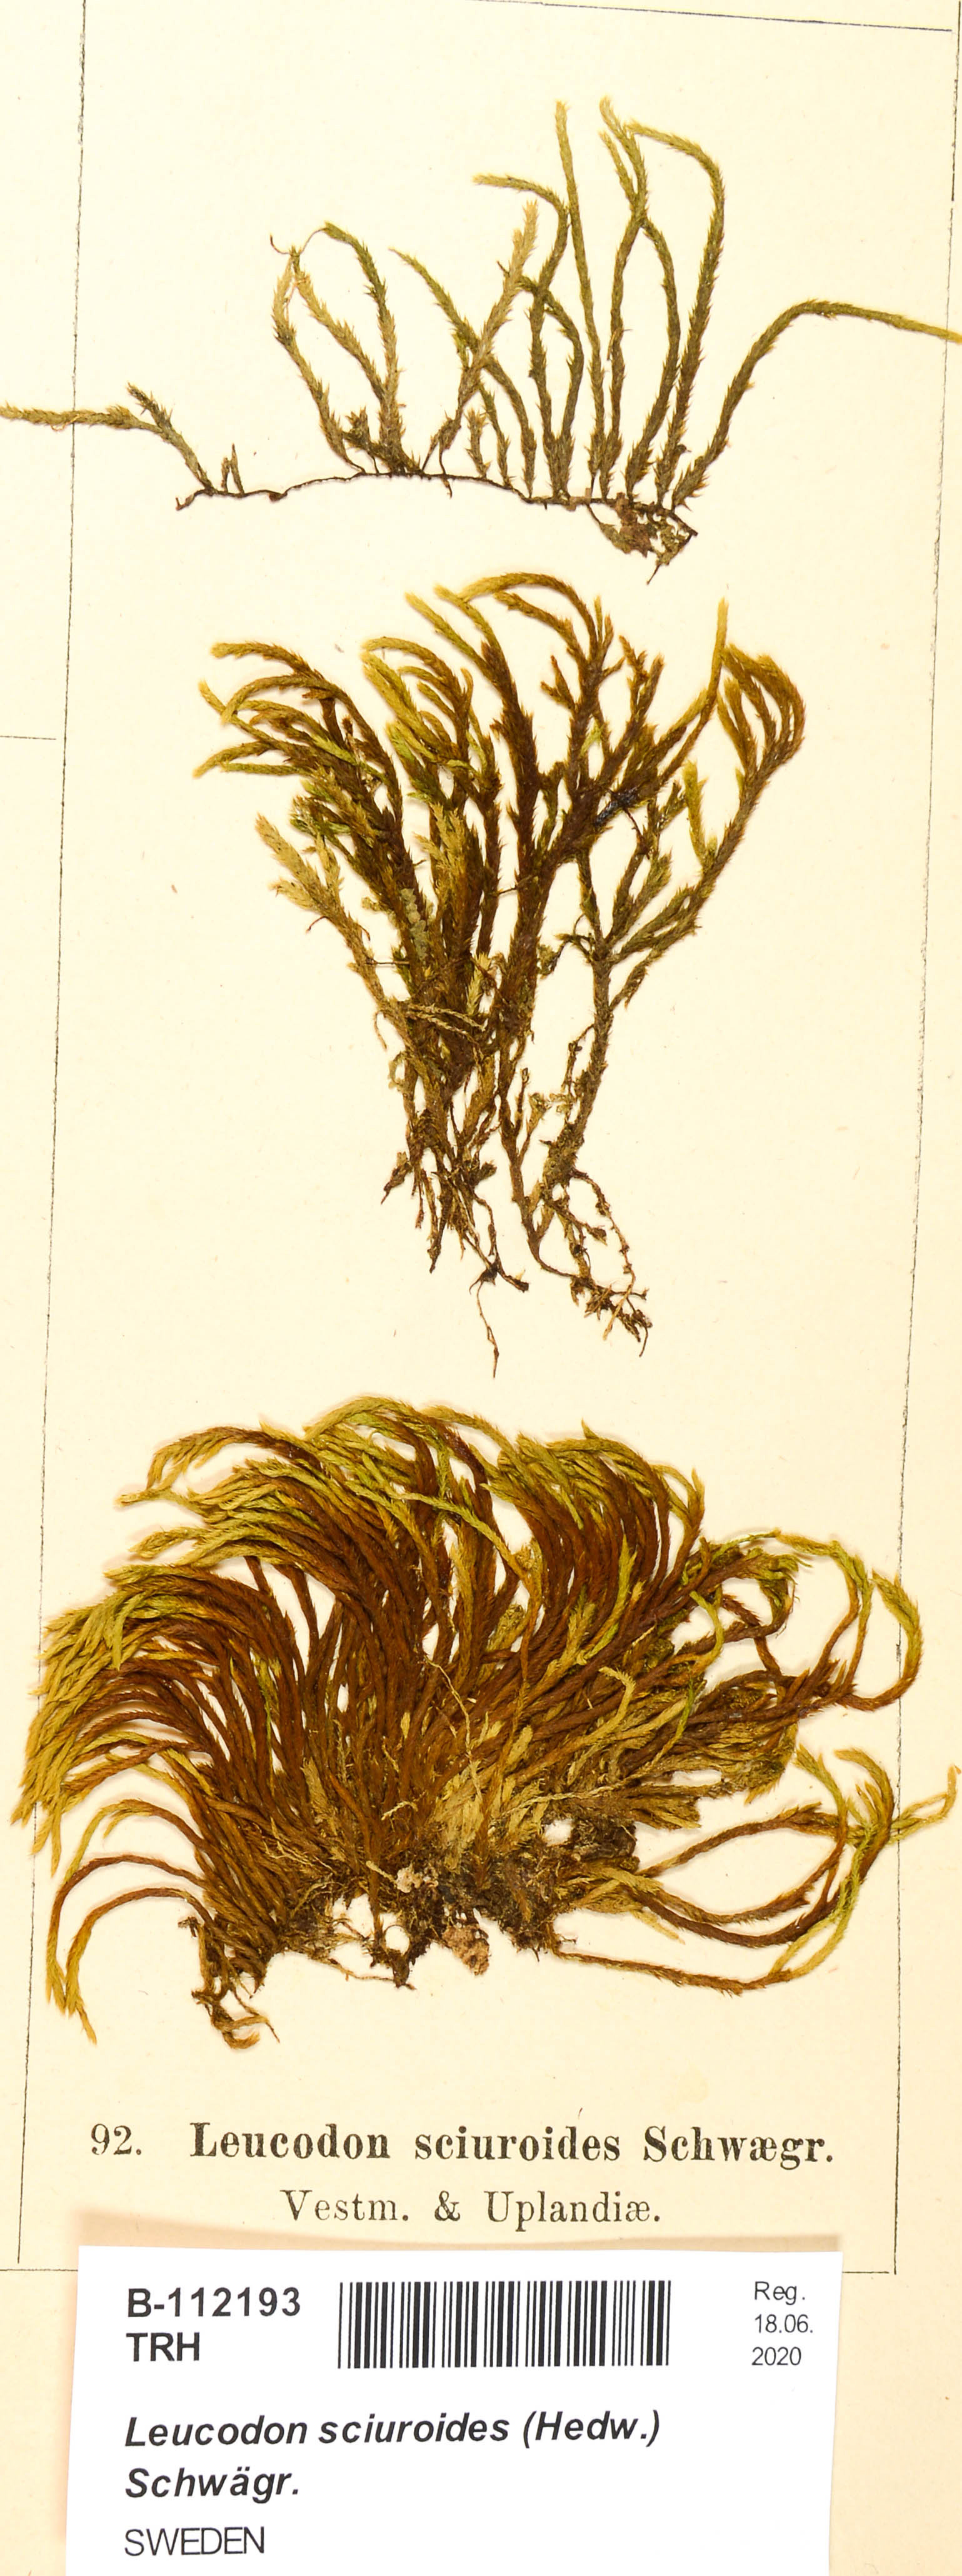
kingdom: Plantae
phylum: Bryophyta
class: Bryopsida
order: Hypnales
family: Leucodontaceae
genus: Leucodon
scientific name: Leucodon sciuroides
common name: Squirrel-tail moss
